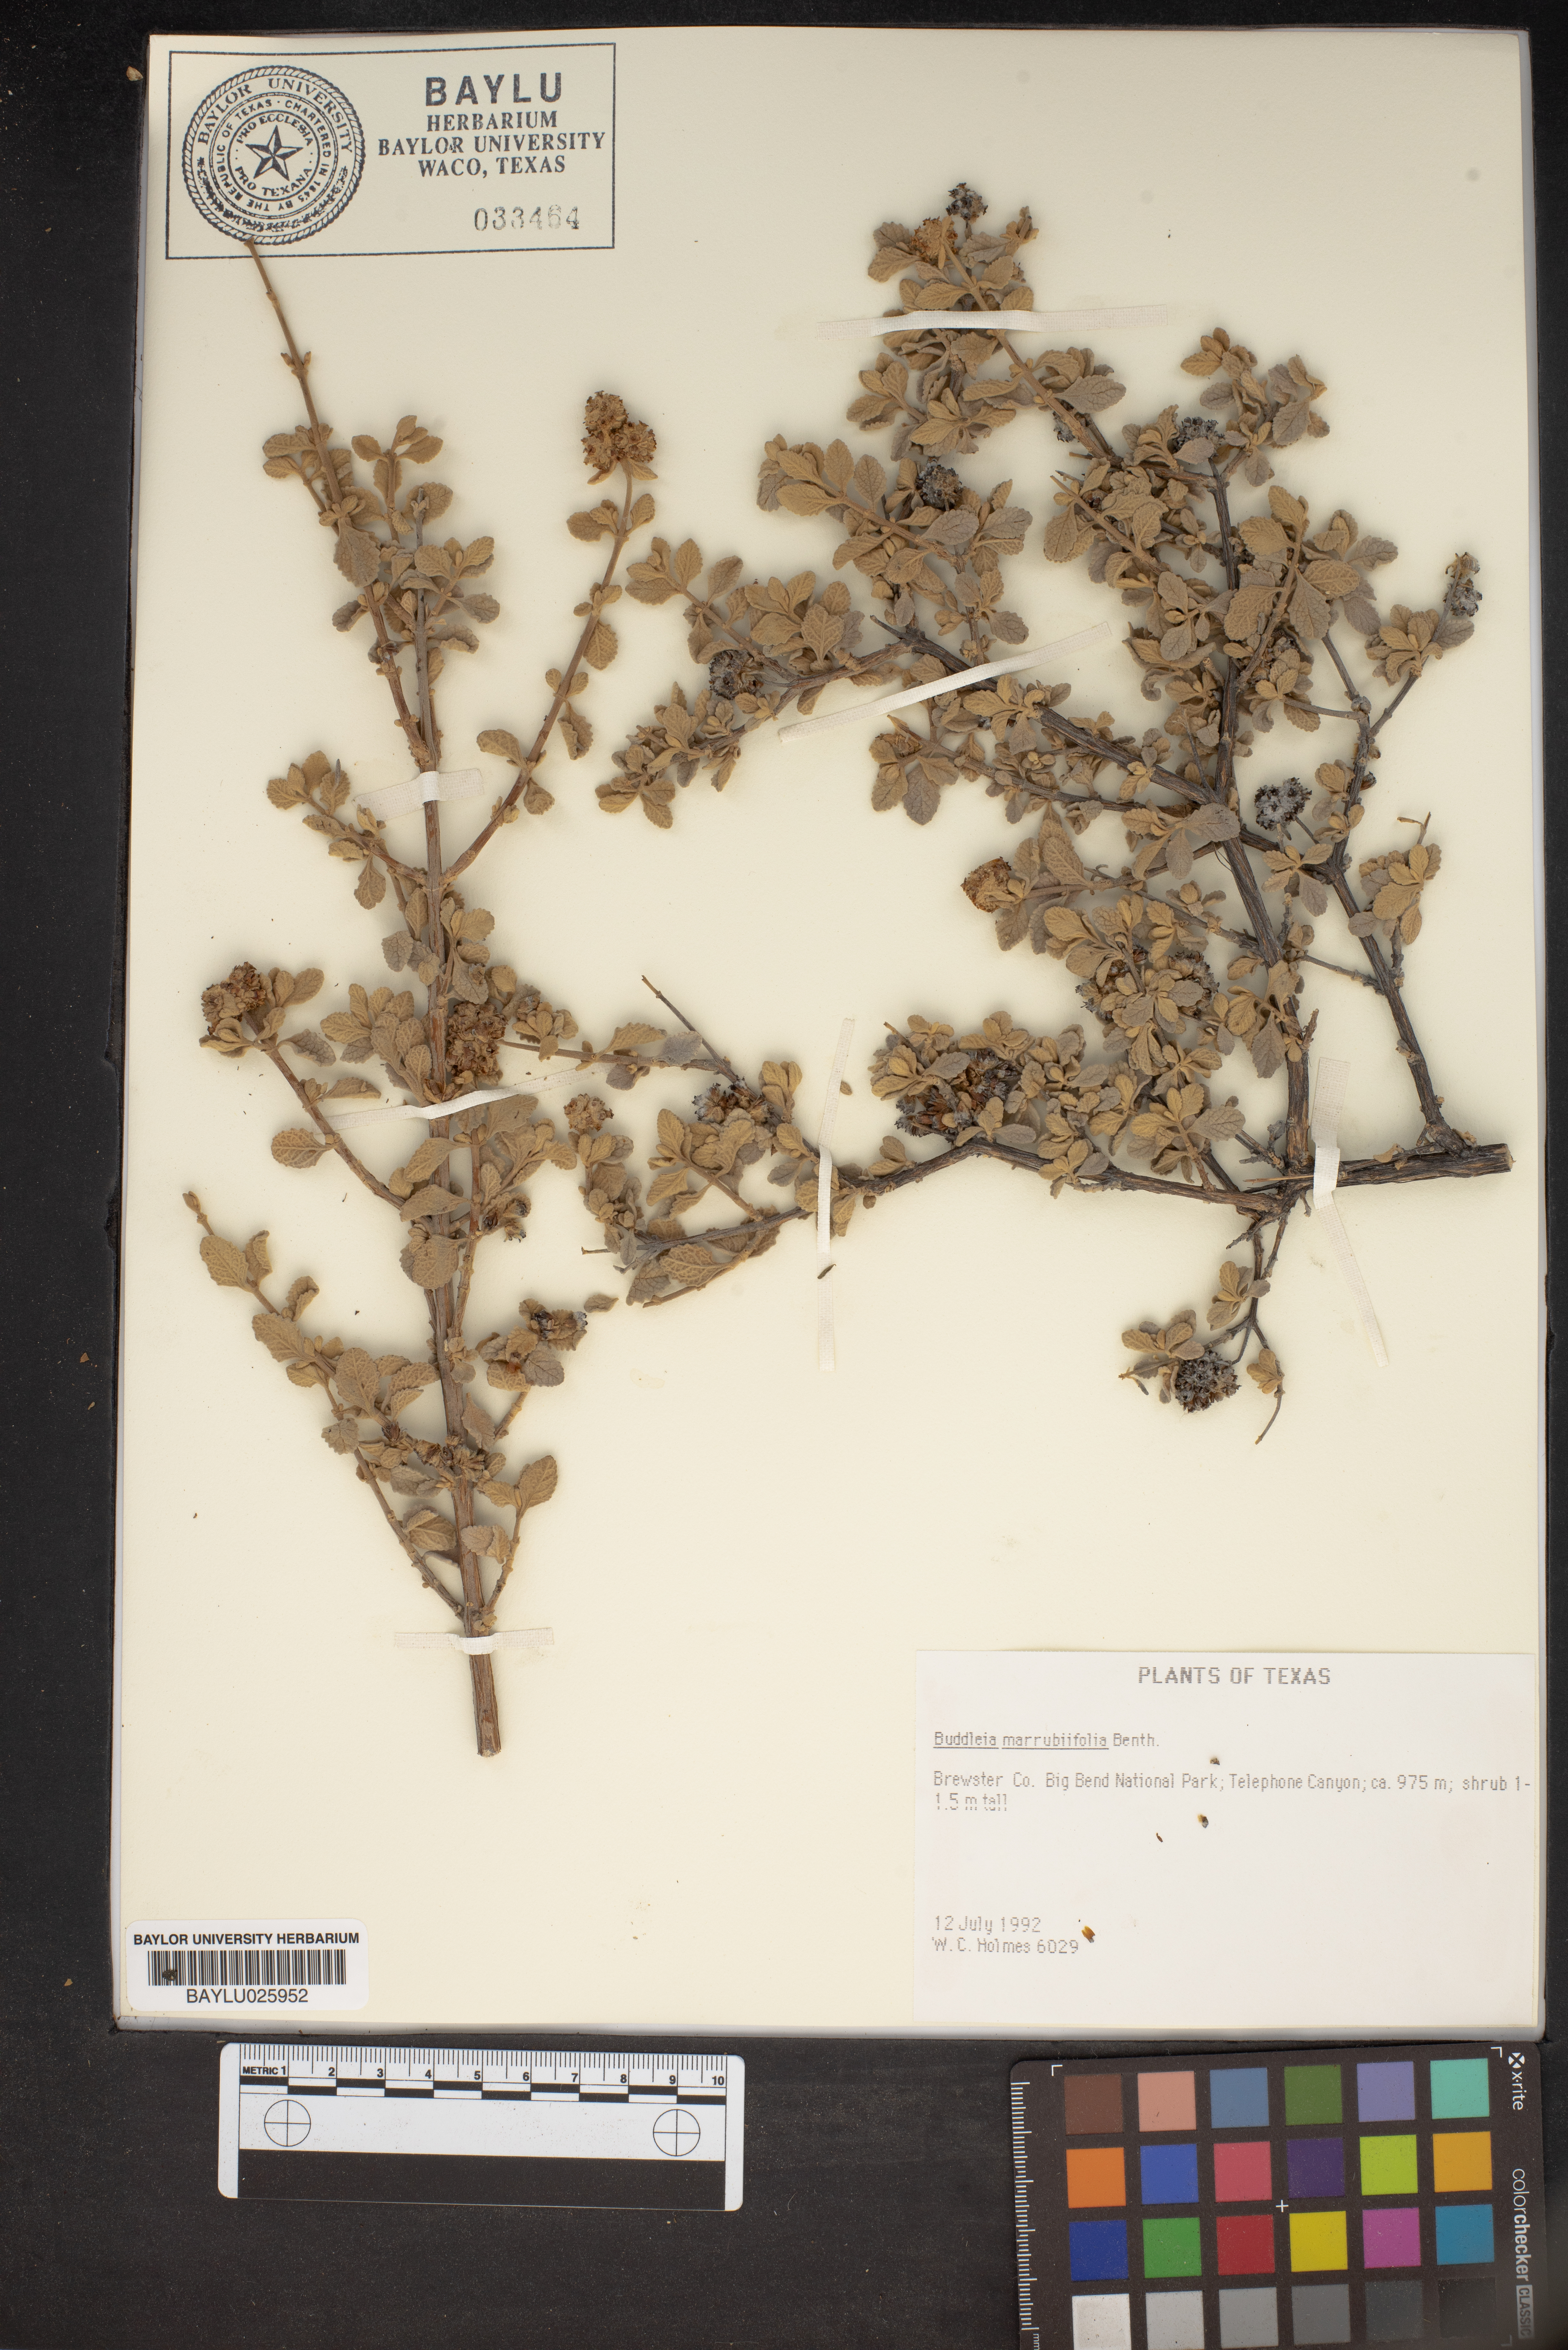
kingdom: Plantae
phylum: Tracheophyta
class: Magnoliopsida
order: Lamiales
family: Scrophulariaceae
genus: Buddleja
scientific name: Buddleja marrubiifolia
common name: Woolly butterfly-bush
